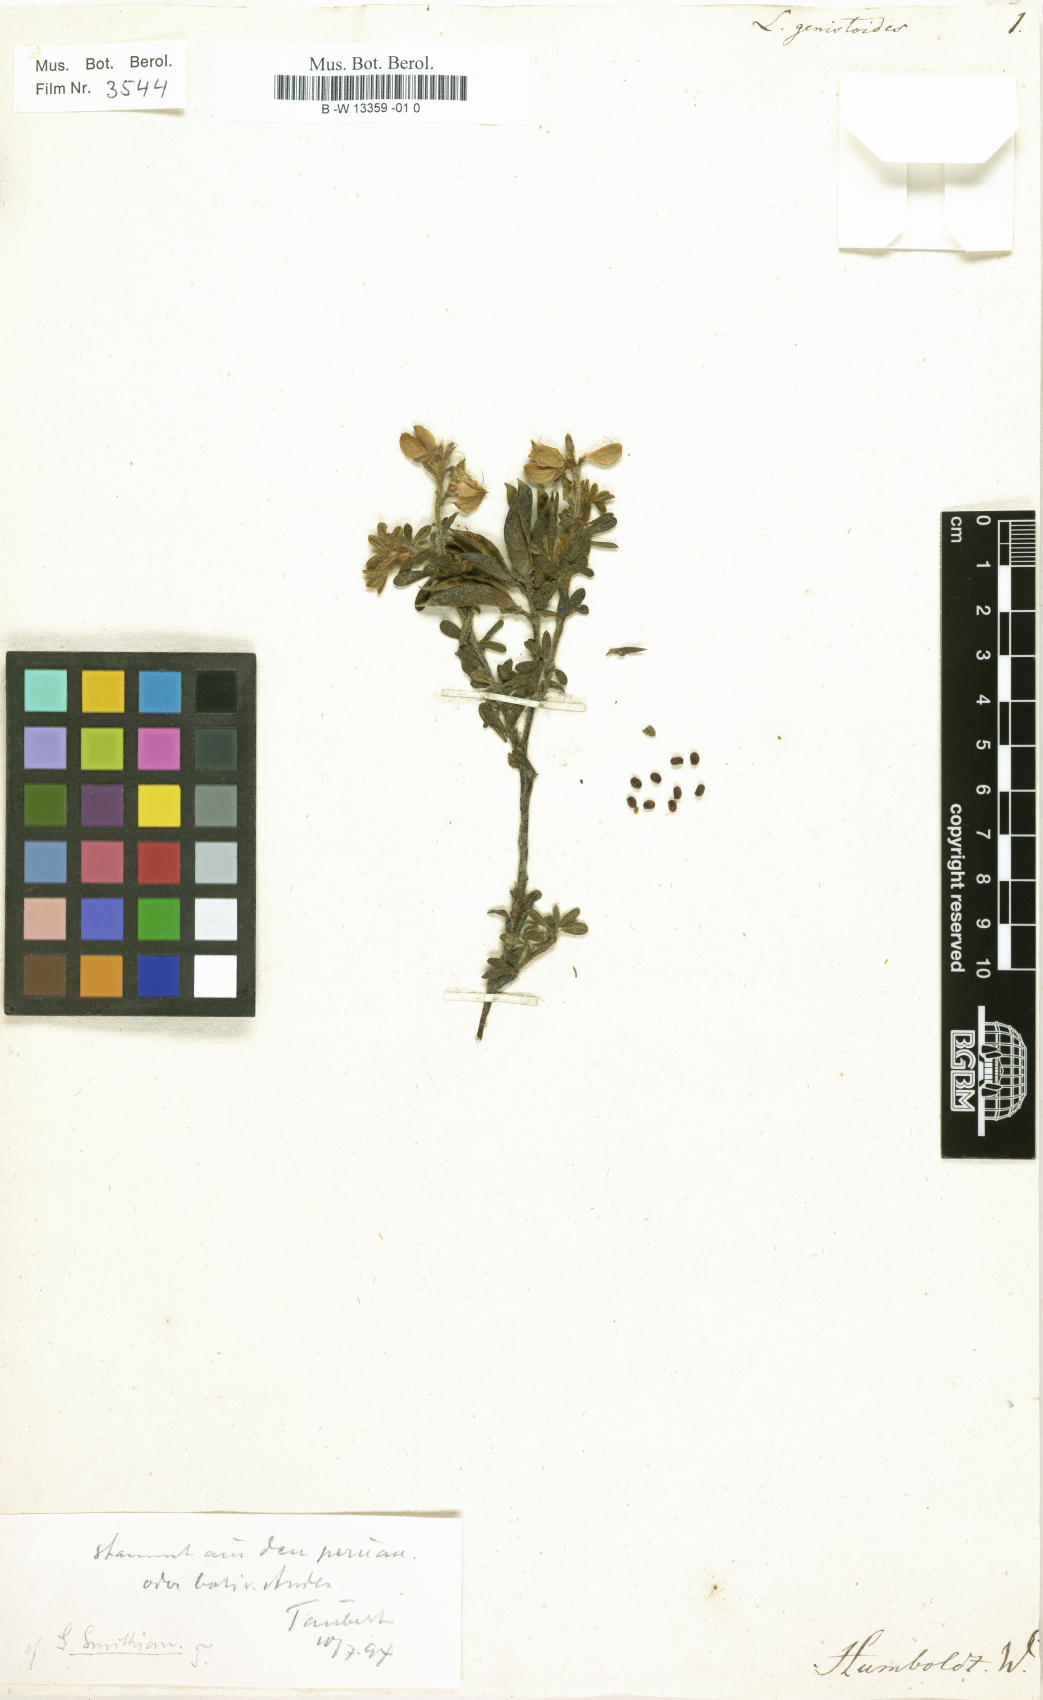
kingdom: Plantae
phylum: Tracheophyta
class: Magnoliopsida
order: Fabales
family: Fabaceae
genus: Lupinus
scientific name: Lupinus
